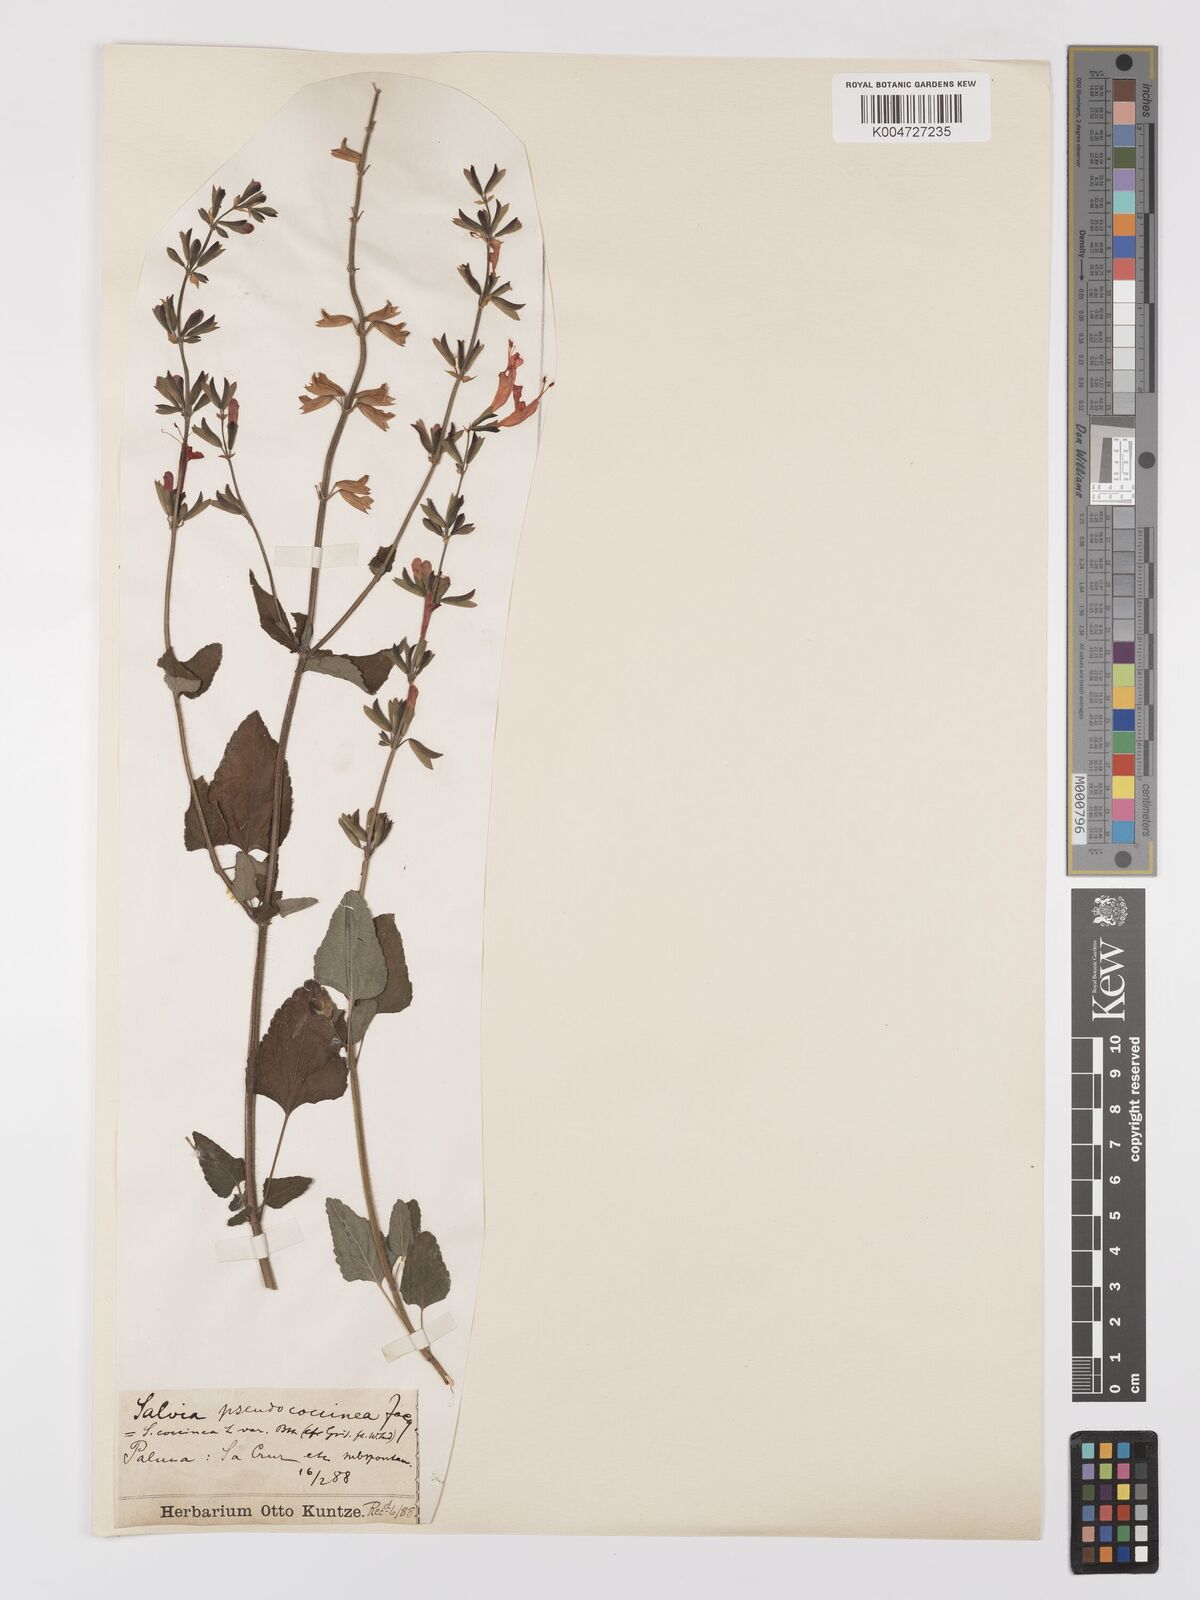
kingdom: Plantae
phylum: Tracheophyta
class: Magnoliopsida
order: Lamiales
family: Lamiaceae
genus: Salvia
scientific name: Salvia
